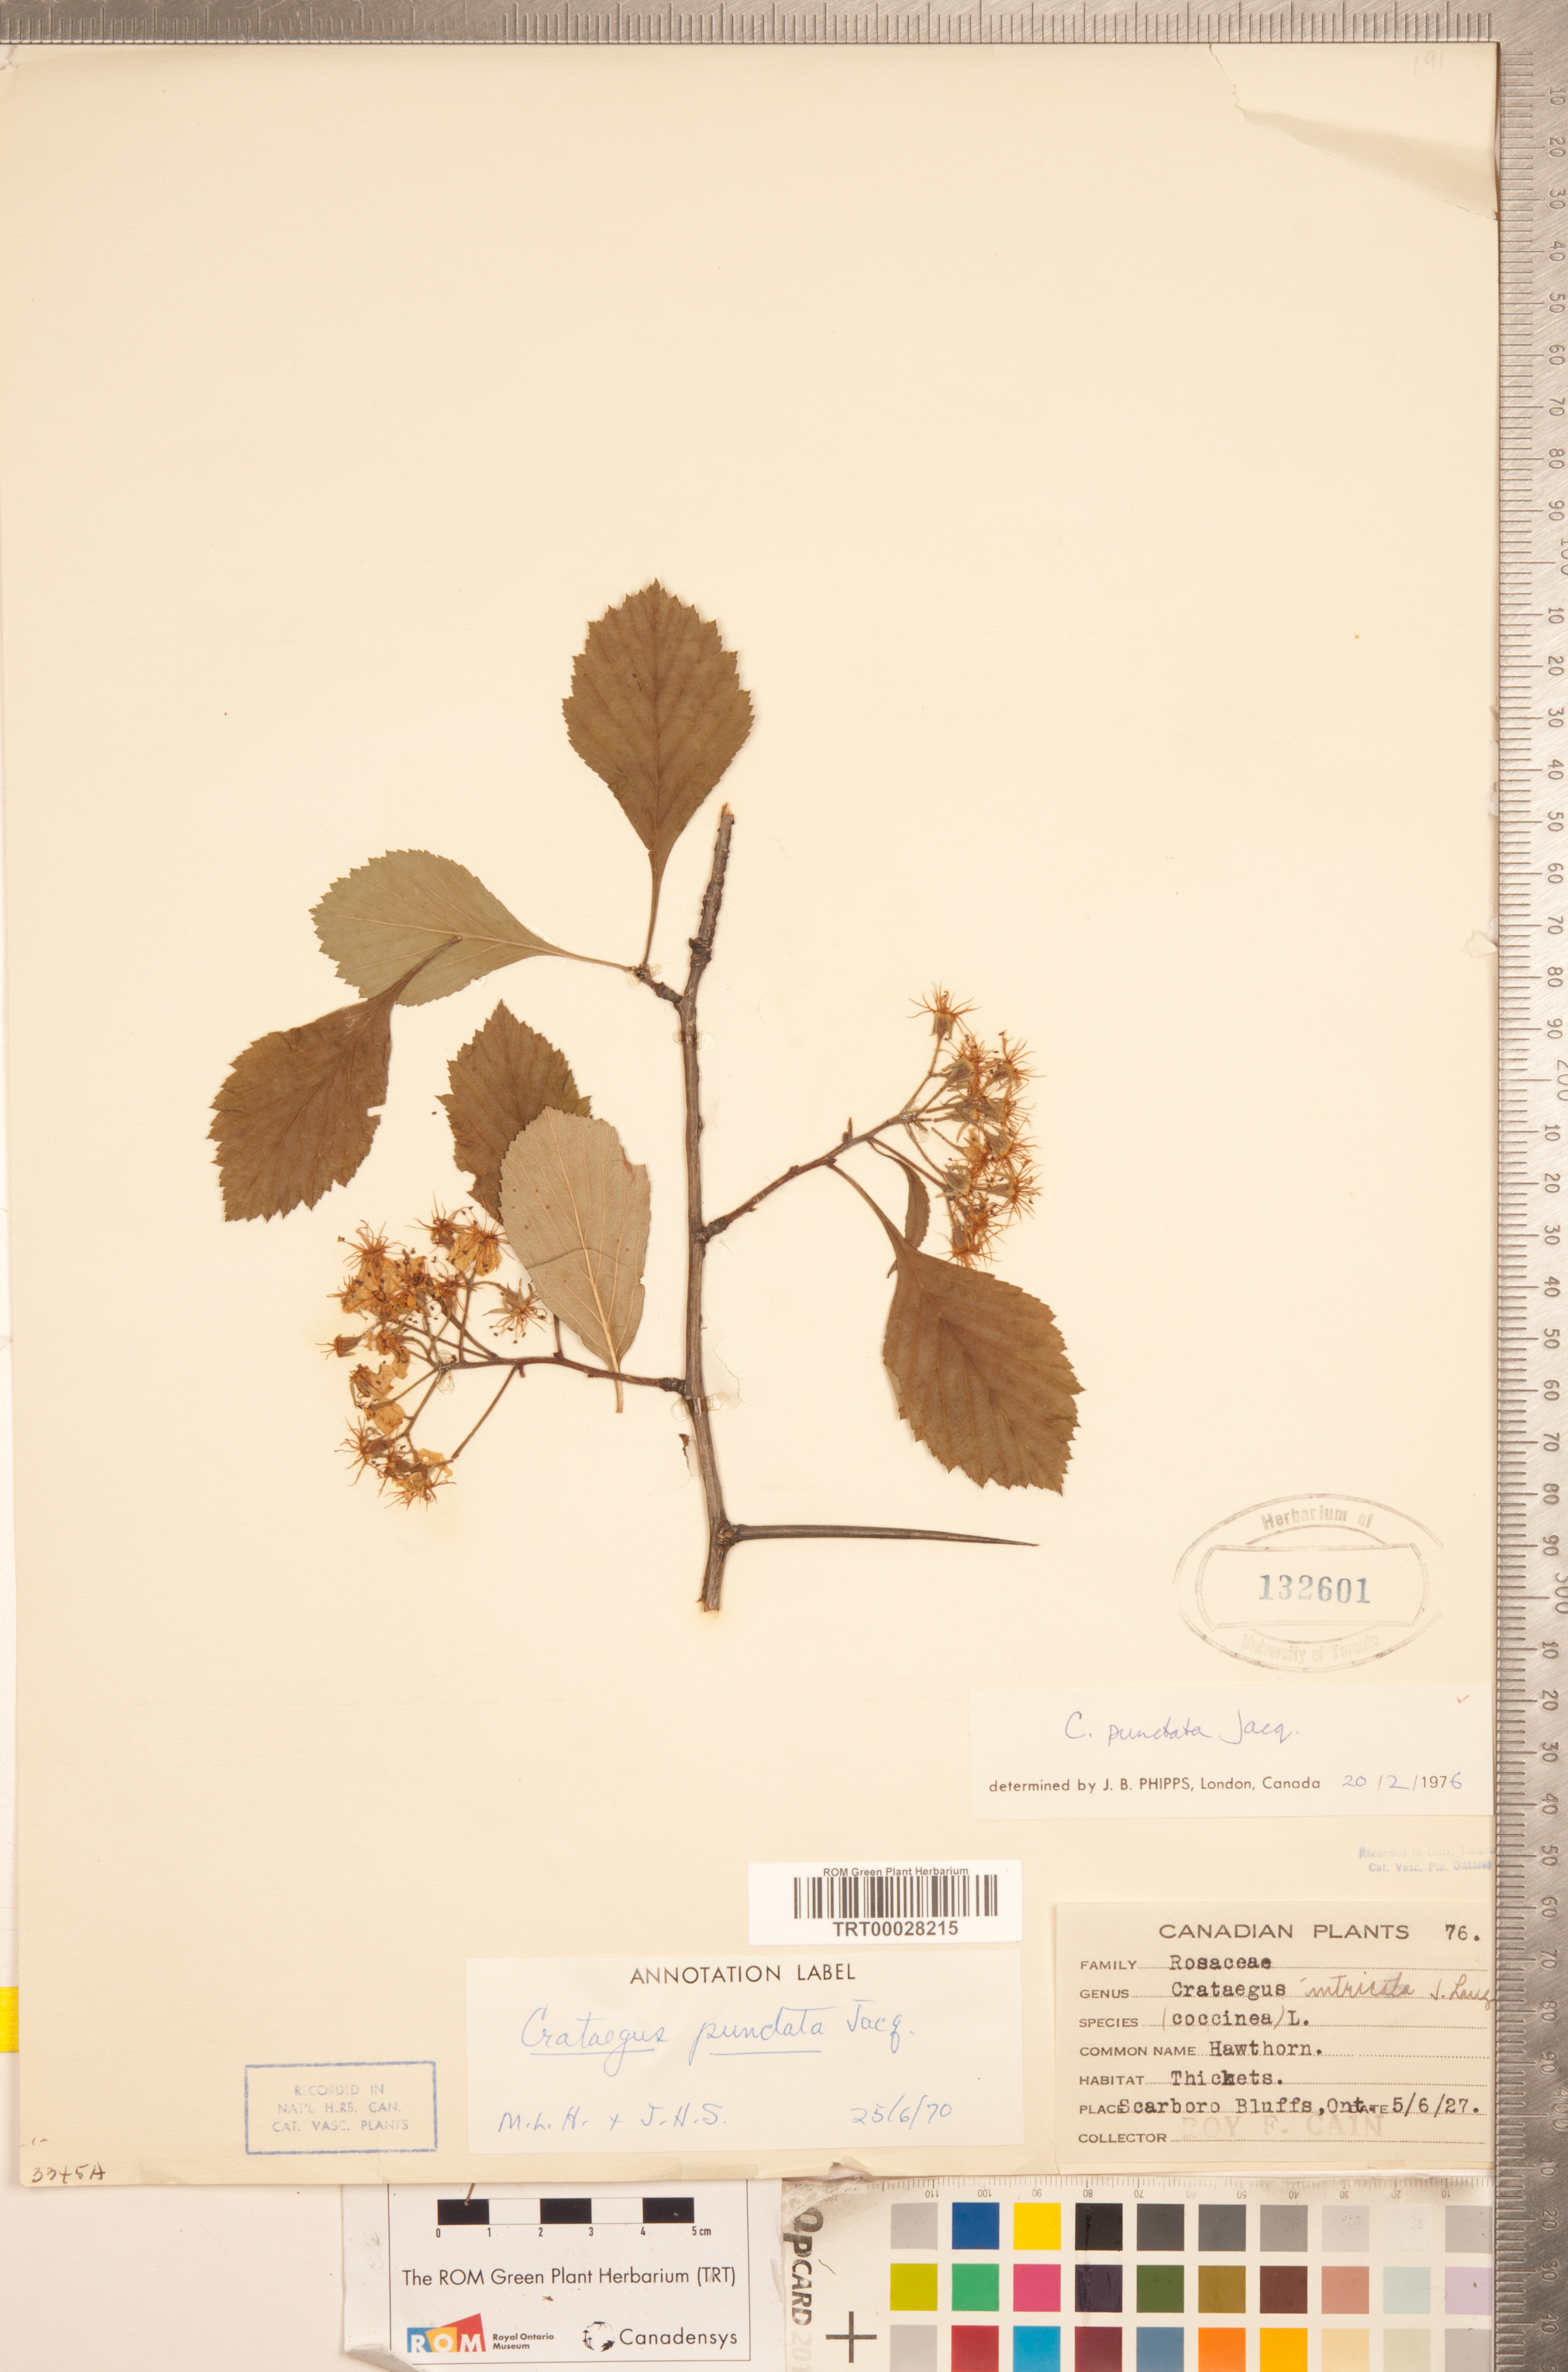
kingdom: Plantae
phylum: Tracheophyta
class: Magnoliopsida
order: Rosales
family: Rosaceae
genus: Crataegus
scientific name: Crataegus punctata
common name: Dotted hawthorn
